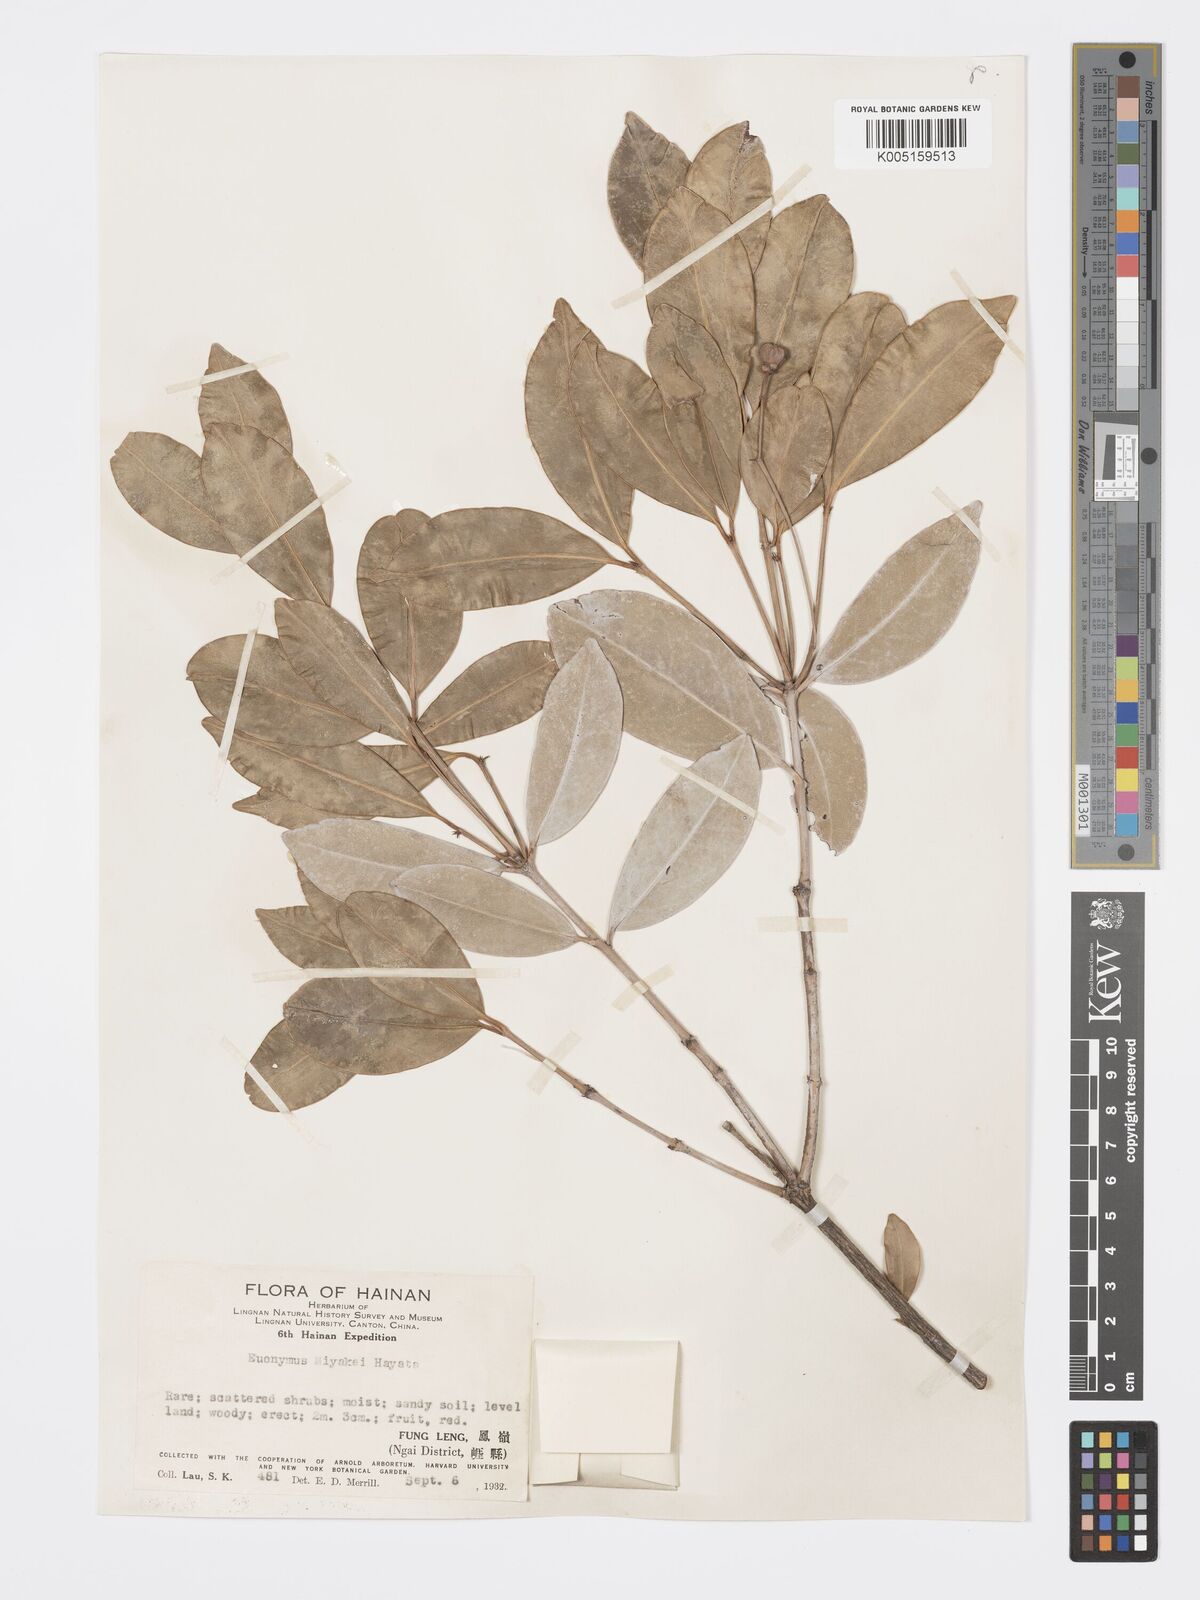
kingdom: Plantae
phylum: Tracheophyta
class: Magnoliopsida
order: Celastrales
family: Celastraceae
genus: Euonymus
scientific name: Euonymus cochinchinensis
